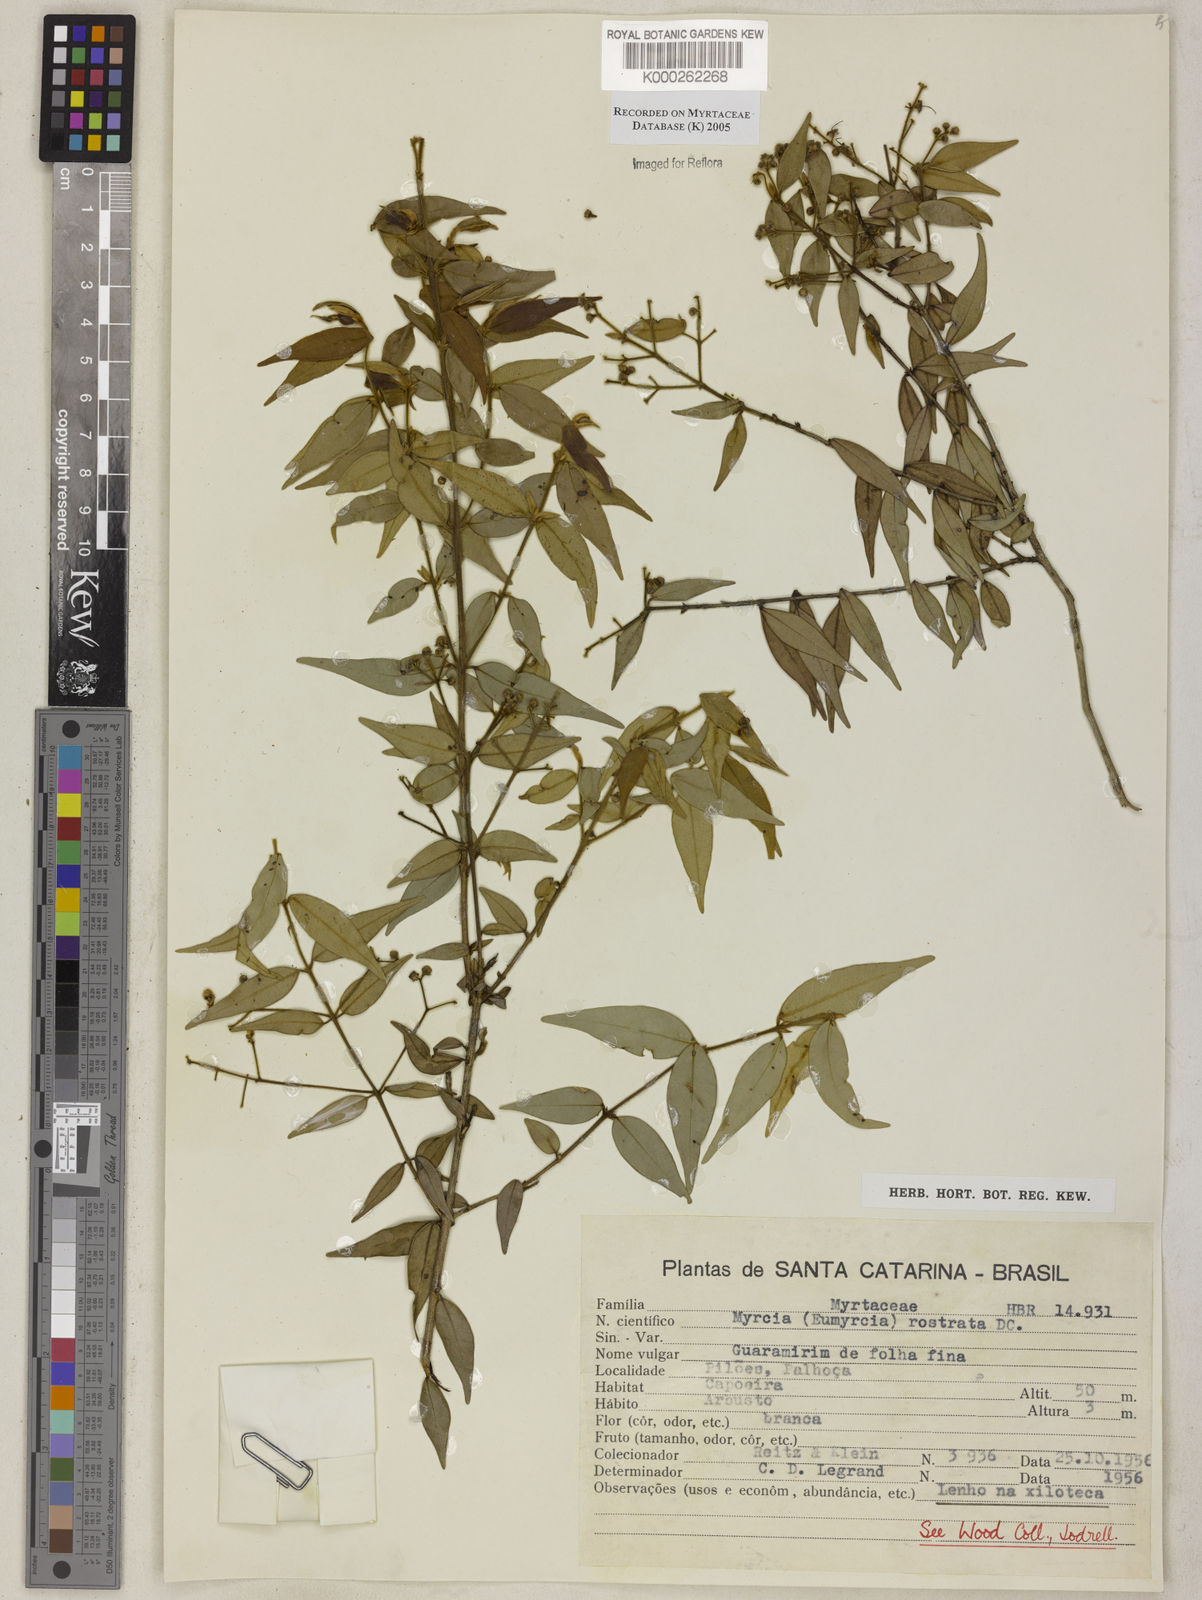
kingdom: Plantae
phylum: Tracheophyta
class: Magnoliopsida
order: Myrtales
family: Myrtaceae
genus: Myrcia
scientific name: Myrcia splendens
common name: Surinam cherry
